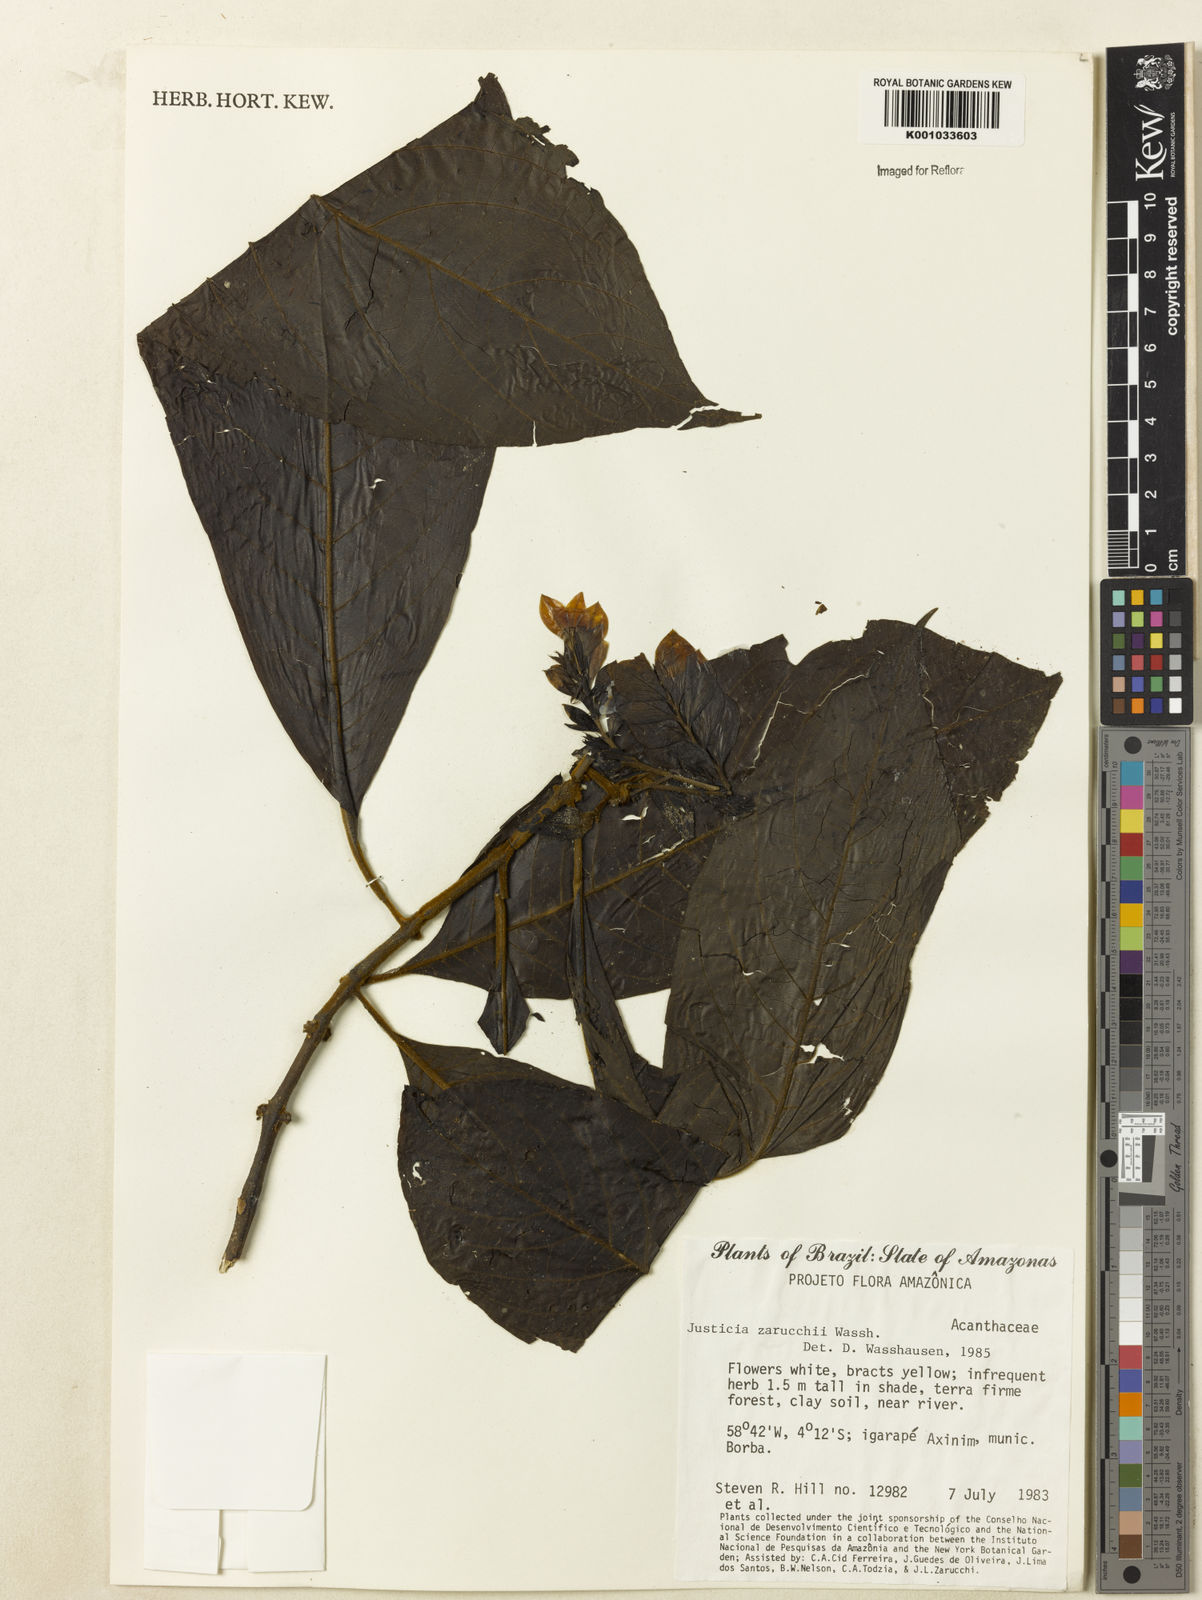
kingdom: Plantae
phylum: Tracheophyta
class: Magnoliopsida
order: Lamiales
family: Acanthaceae
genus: Justicia
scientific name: Justicia zarucchii
